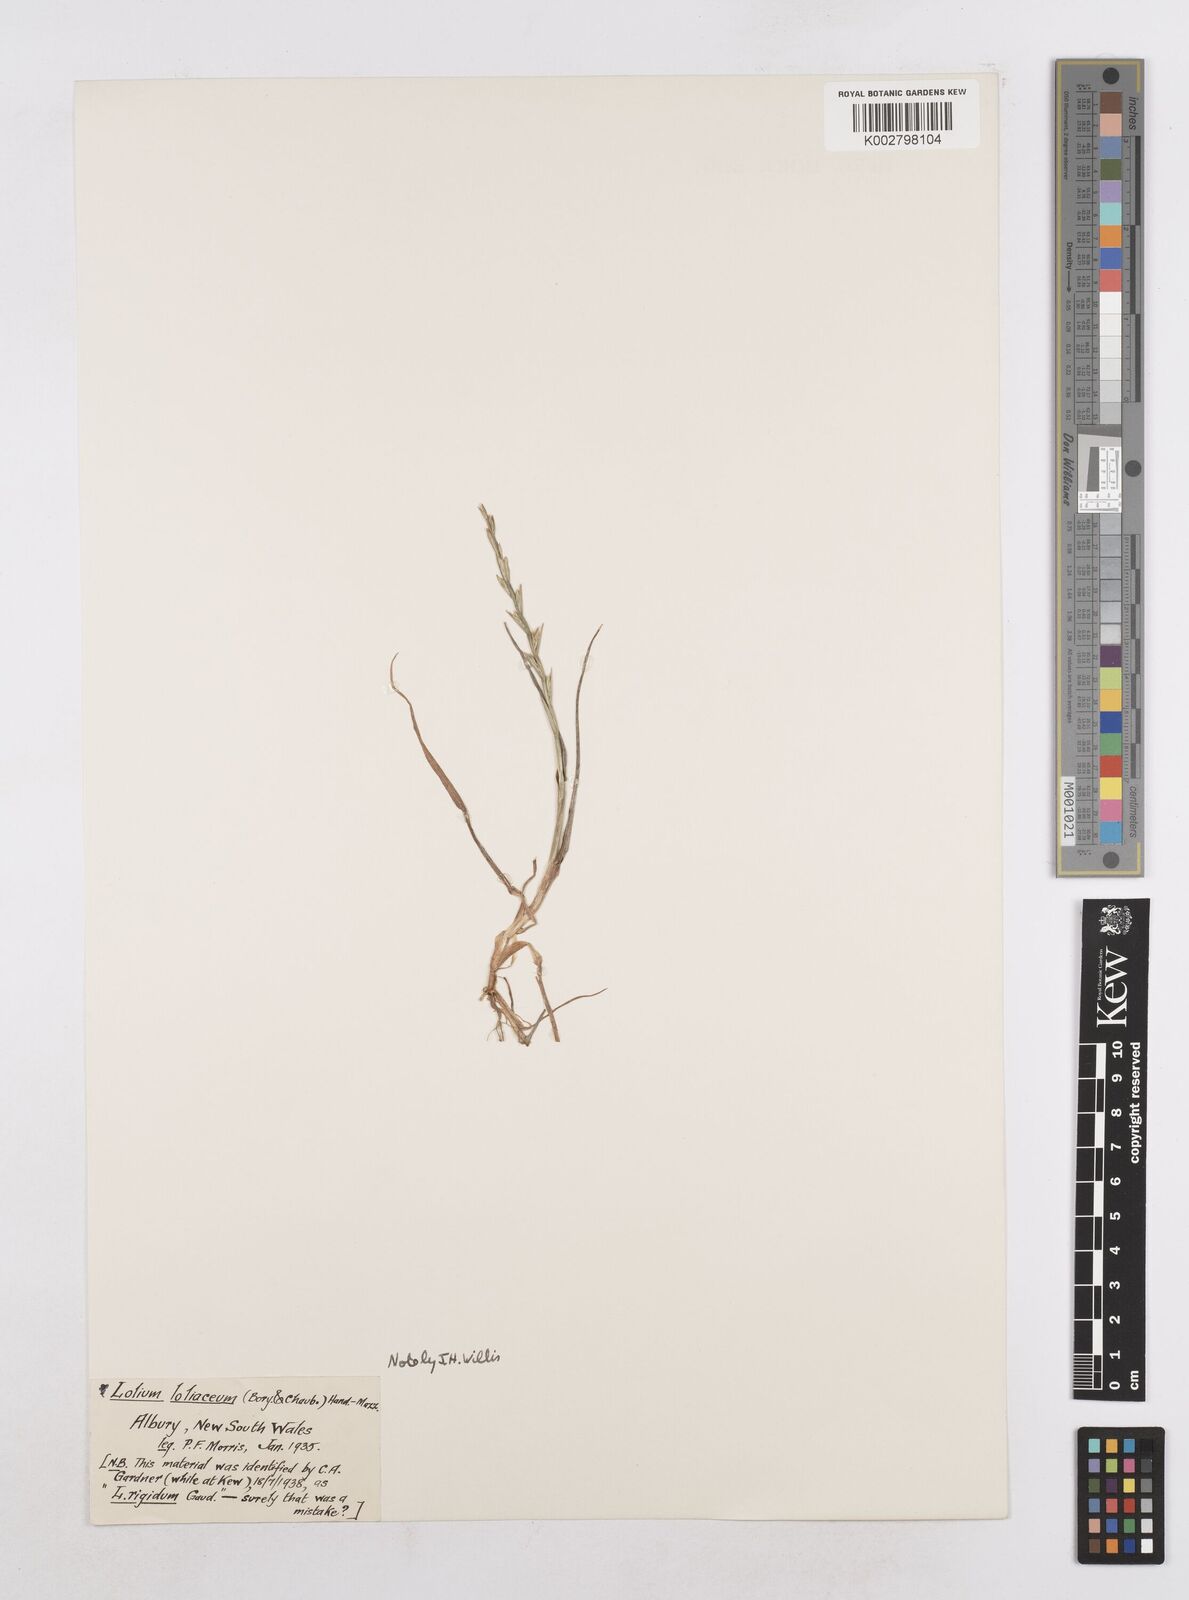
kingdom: Plantae
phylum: Tracheophyta
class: Liliopsida
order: Poales
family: Poaceae
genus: Lolium
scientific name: Lolium
